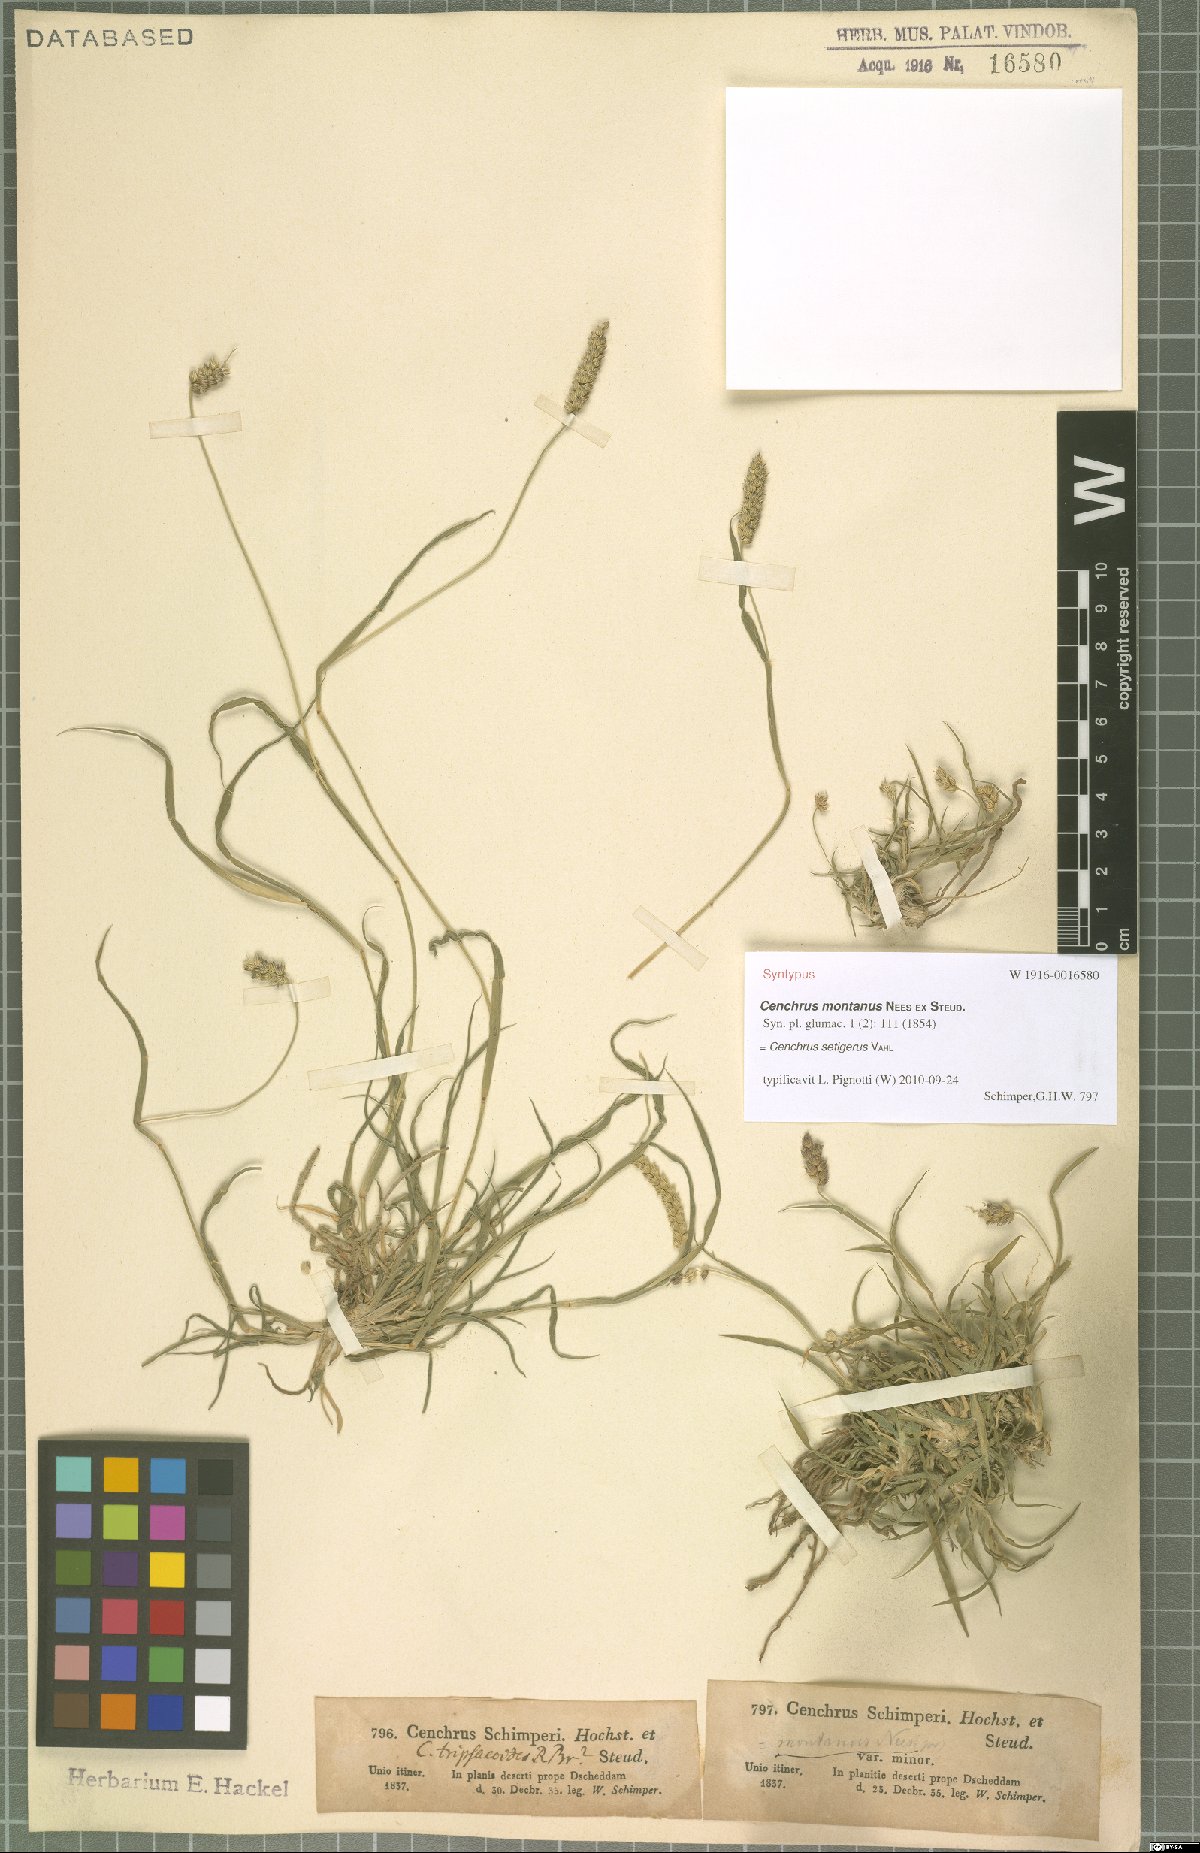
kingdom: Plantae
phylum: Tracheophyta
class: Liliopsida
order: Poales
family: Poaceae
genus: Cenchrus
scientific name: Cenchrus setigerus
